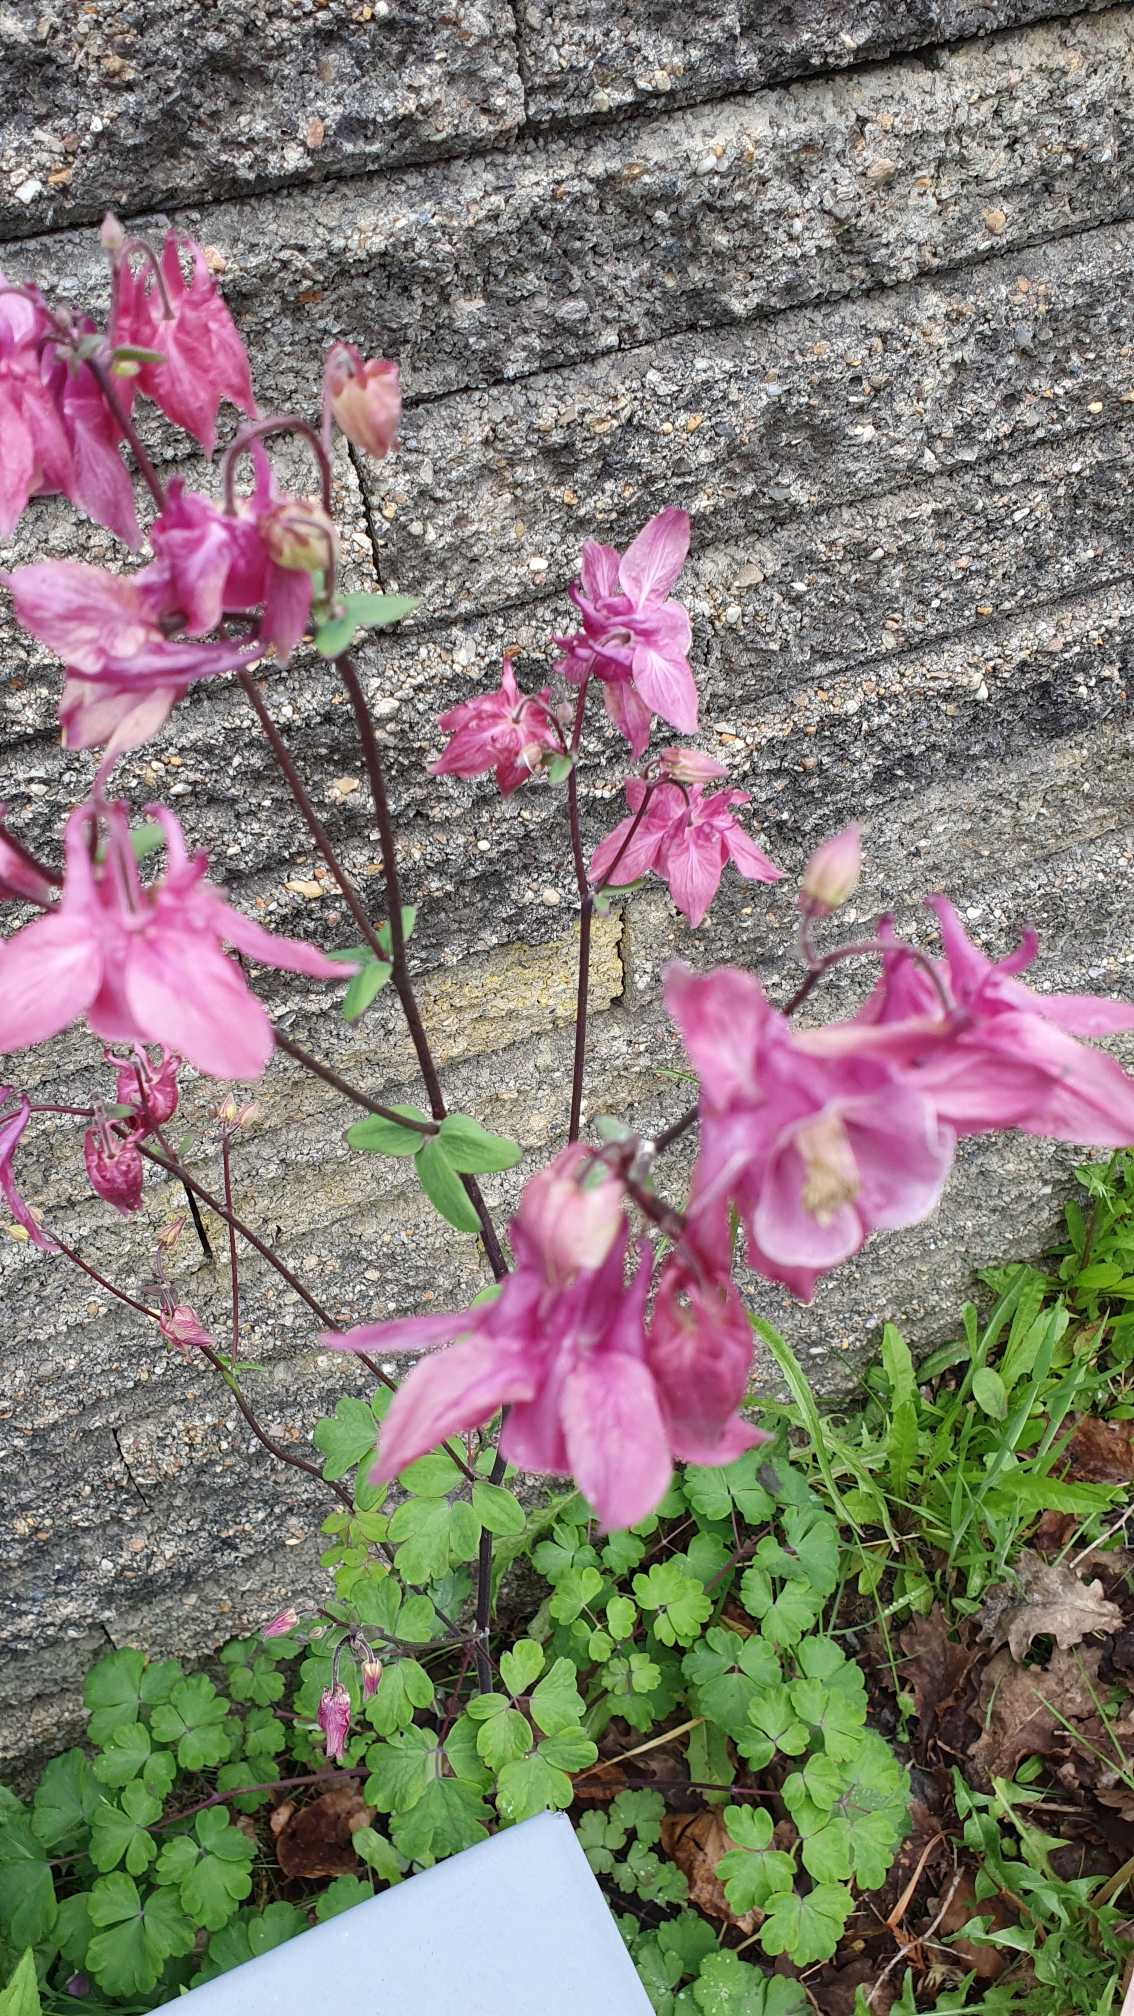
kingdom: Plantae
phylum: Tracheophyta
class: Magnoliopsida
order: Ranunculales
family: Ranunculaceae
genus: Aquilegia
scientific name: Aquilegia vulgaris
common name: Akeleje
